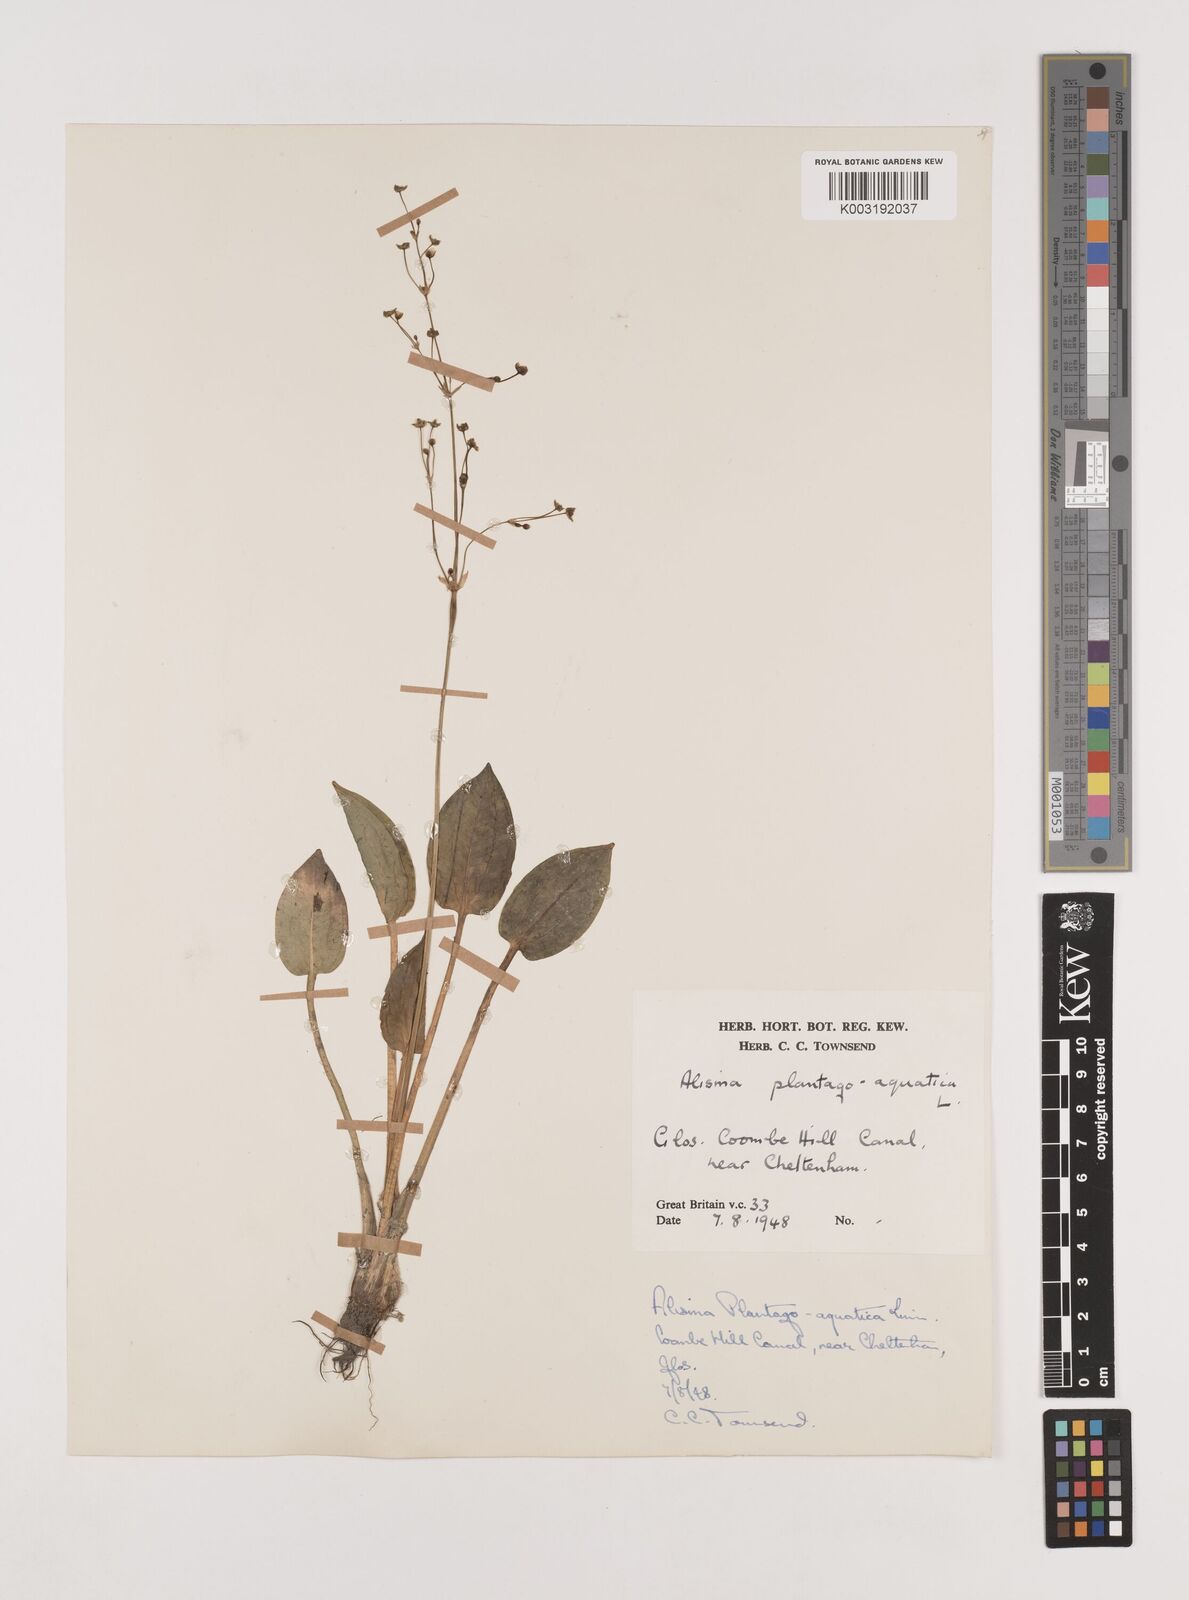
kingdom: Plantae
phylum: Tracheophyta
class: Liliopsida
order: Alismatales
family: Alismataceae
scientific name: Alismataceae
